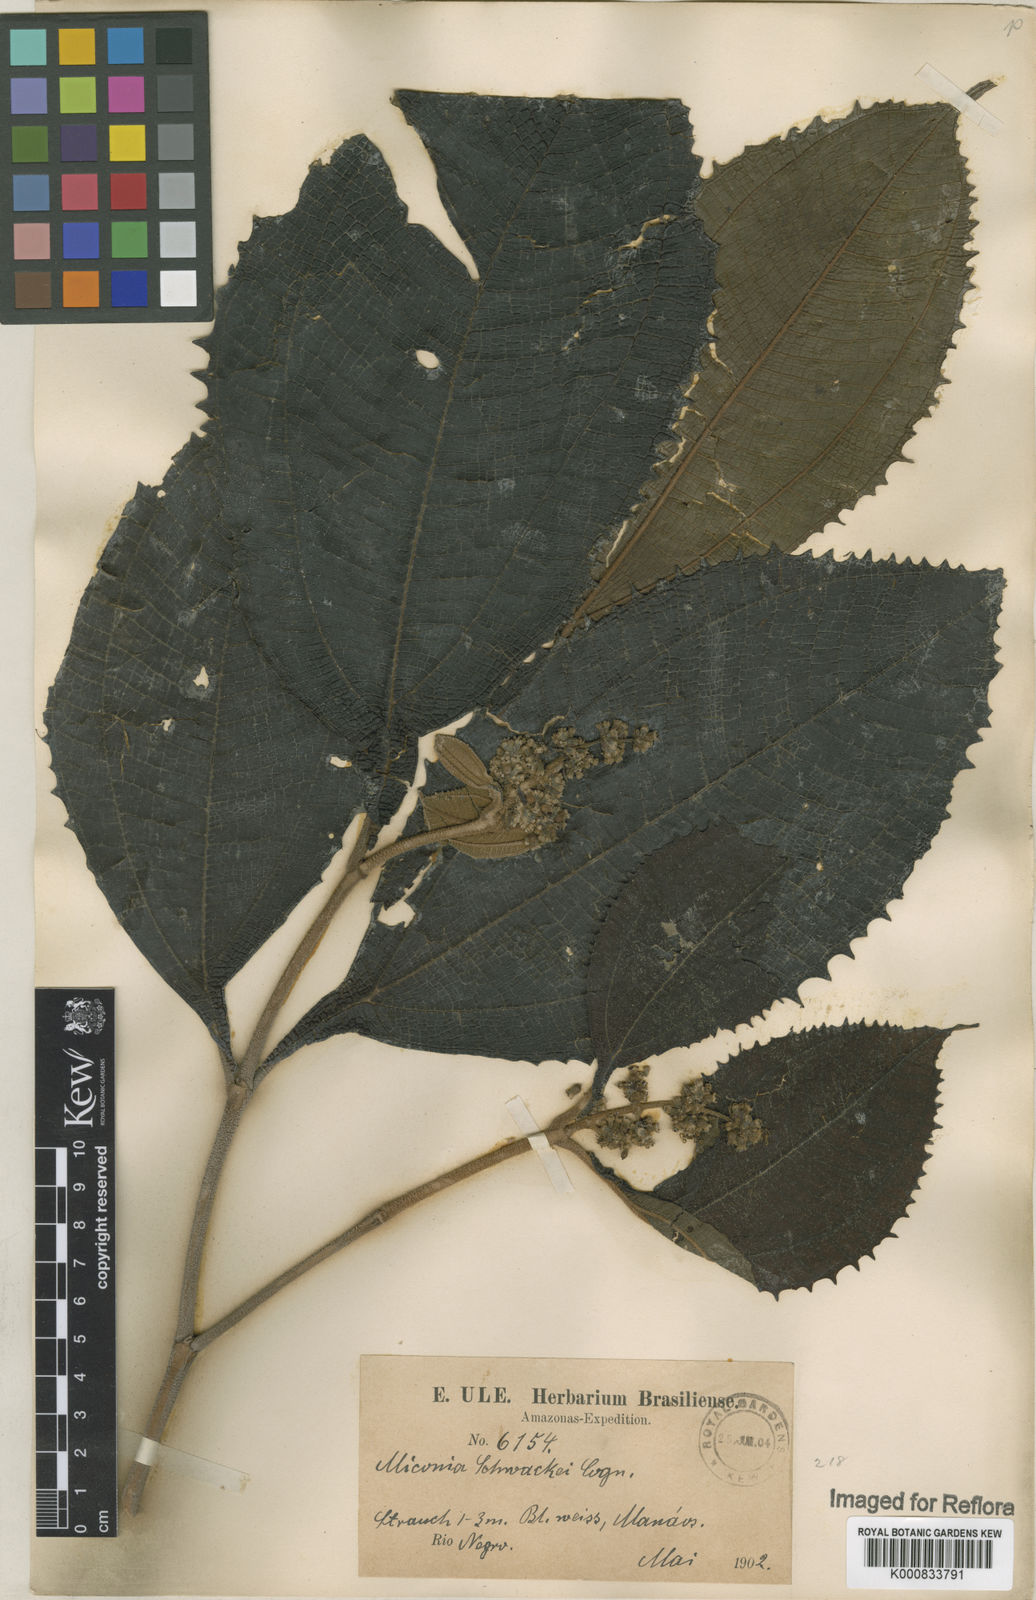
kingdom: Plantae
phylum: Tracheophyta
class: Magnoliopsida
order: Myrtales
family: Melastomataceae
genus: Miconia
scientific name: Miconia schwackei
